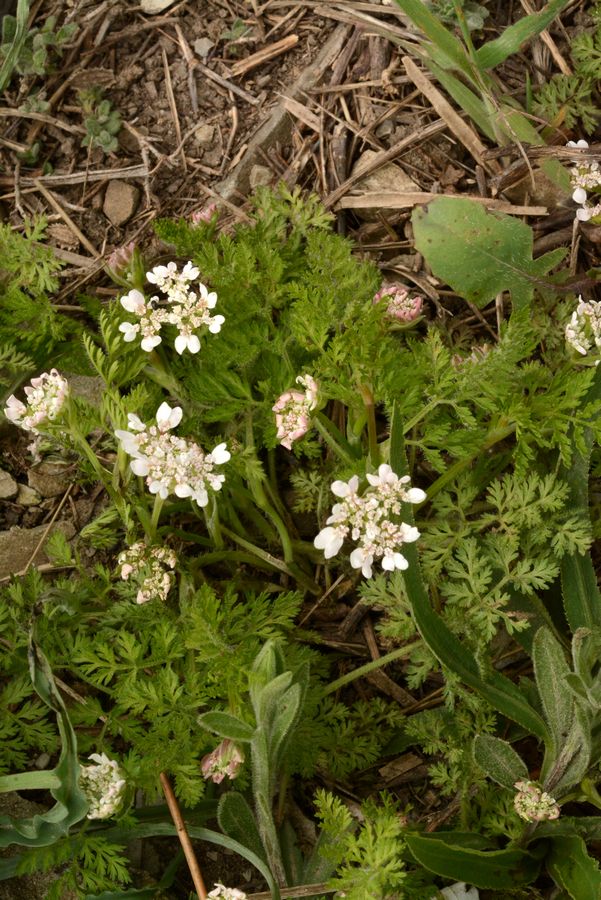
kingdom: Plantae
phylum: Tracheophyta
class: Magnoliopsida
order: Apiales
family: Apiaceae
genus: Orlaya
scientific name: Orlaya daucoides
